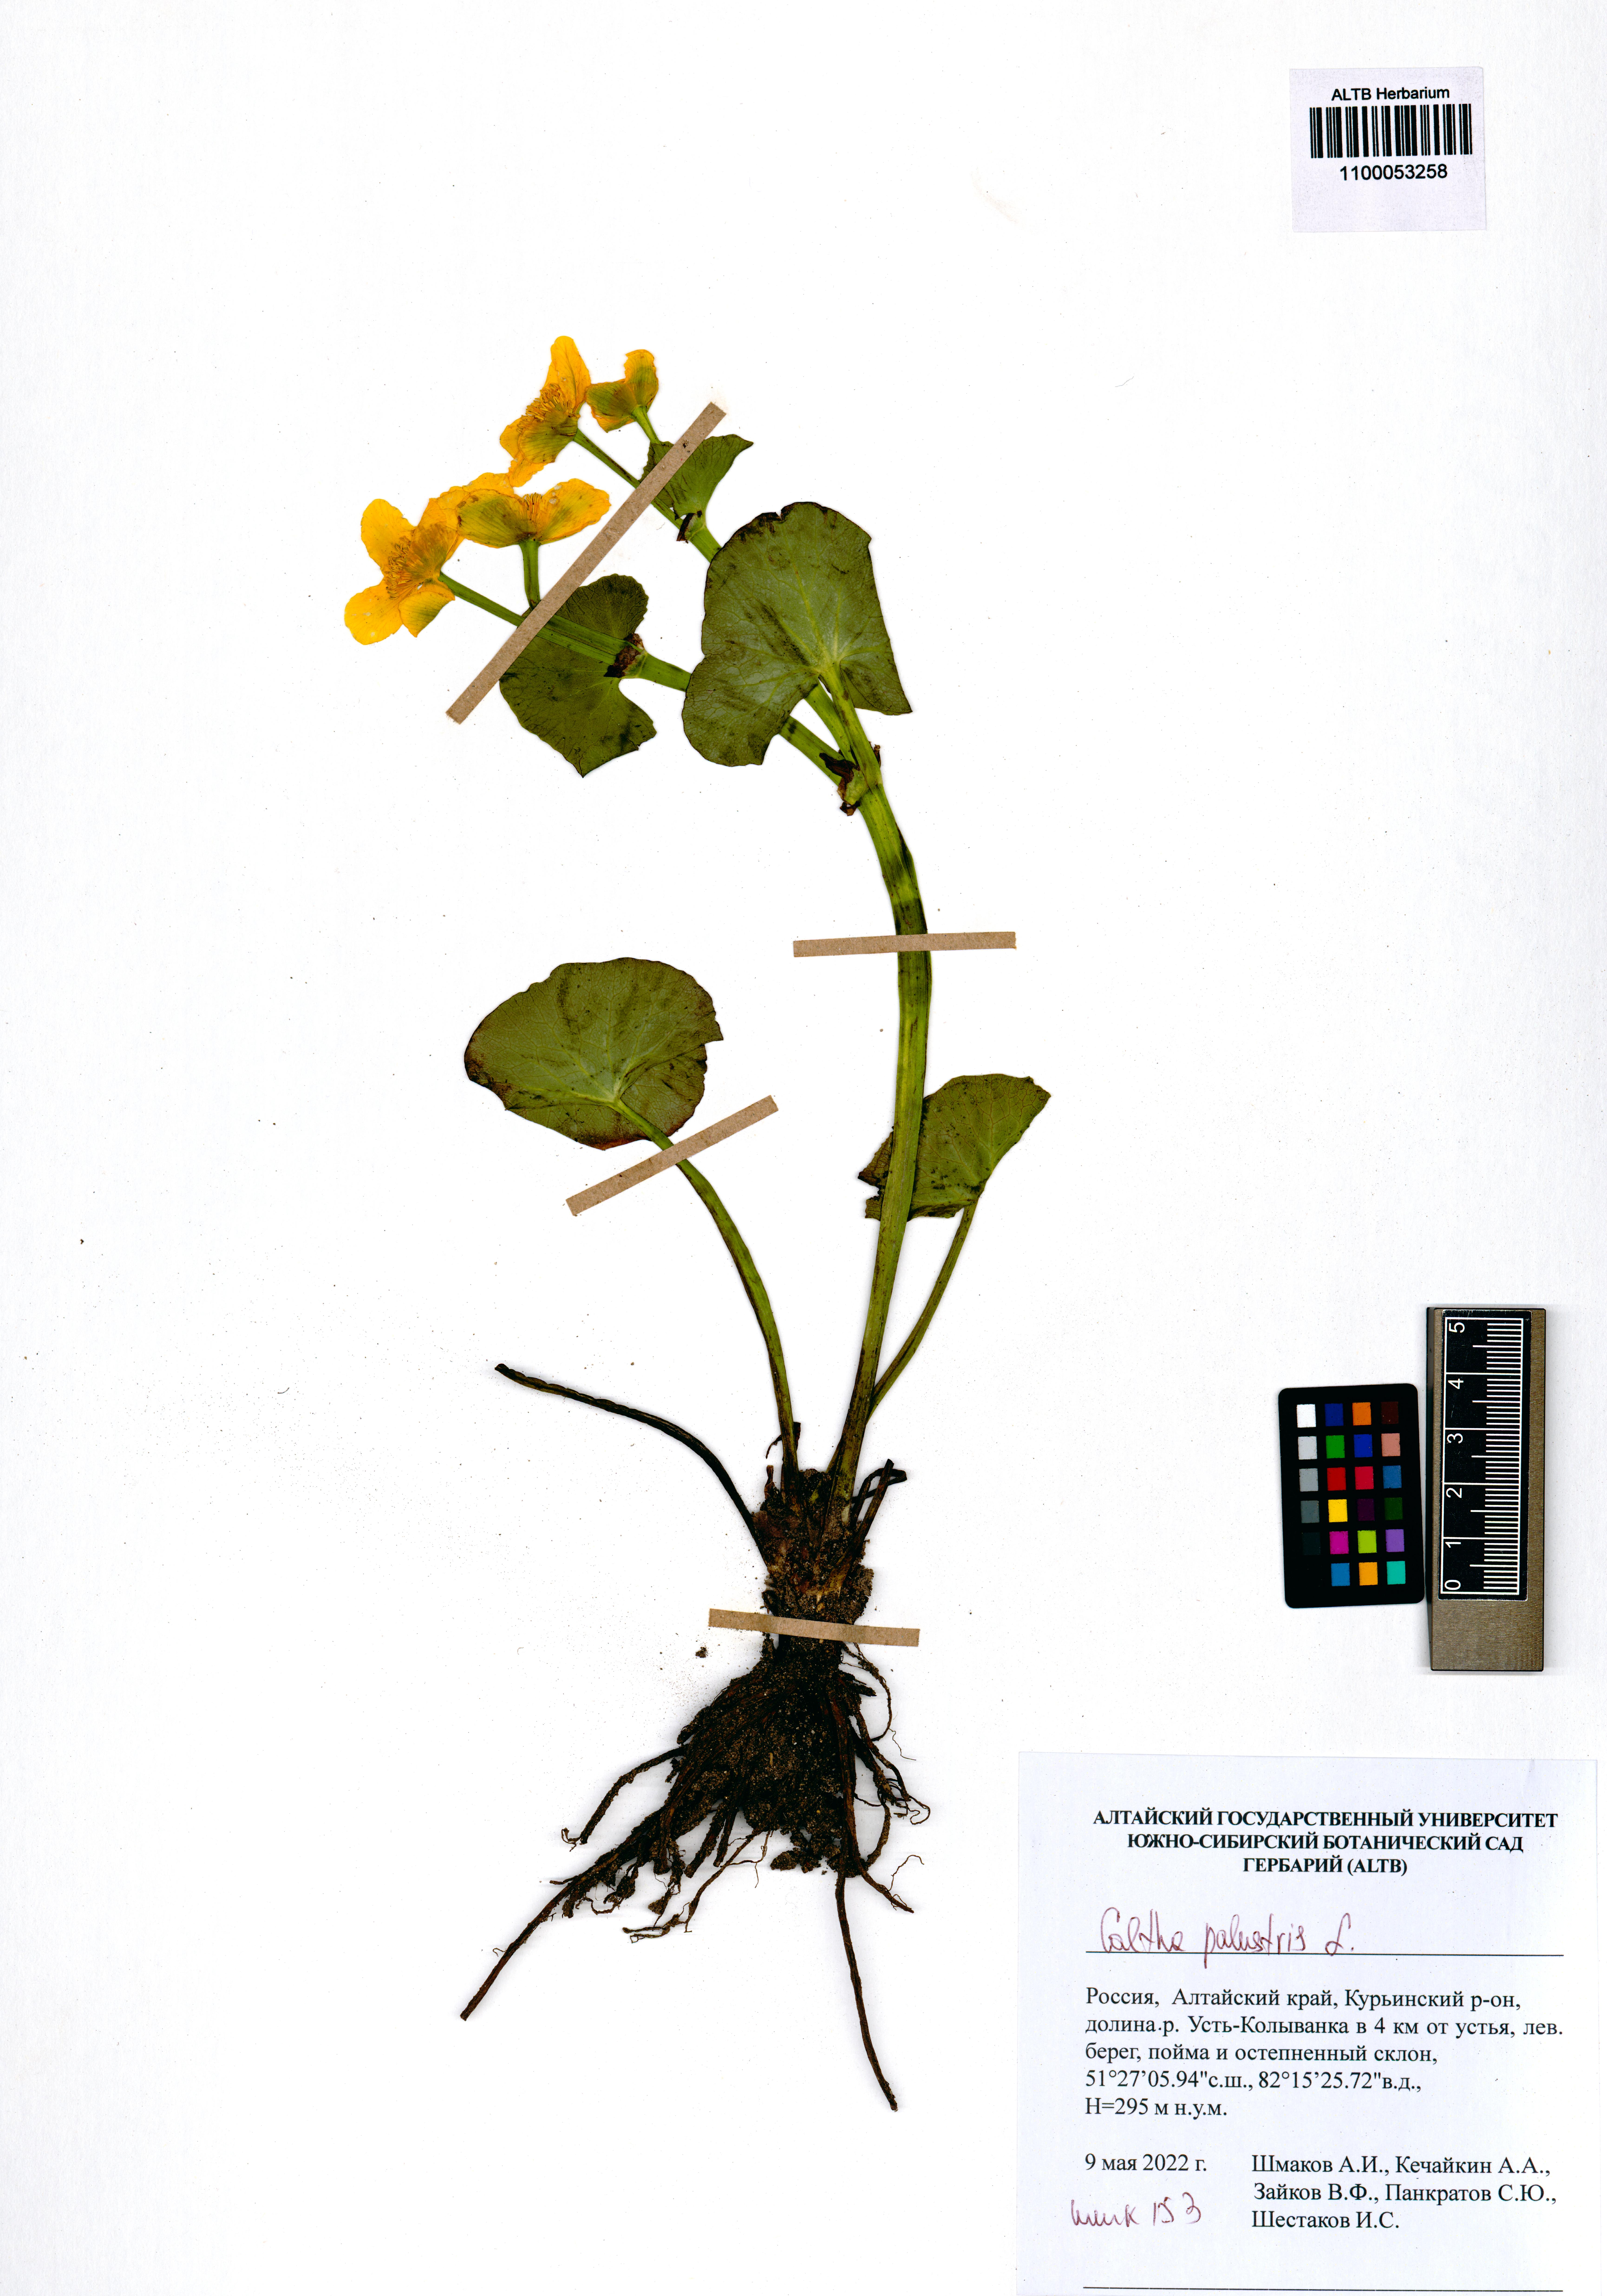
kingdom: Plantae
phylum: Tracheophyta
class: Magnoliopsida
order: Ranunculales
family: Ranunculaceae
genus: Caltha
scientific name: Caltha palustris
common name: Marsh marigold
